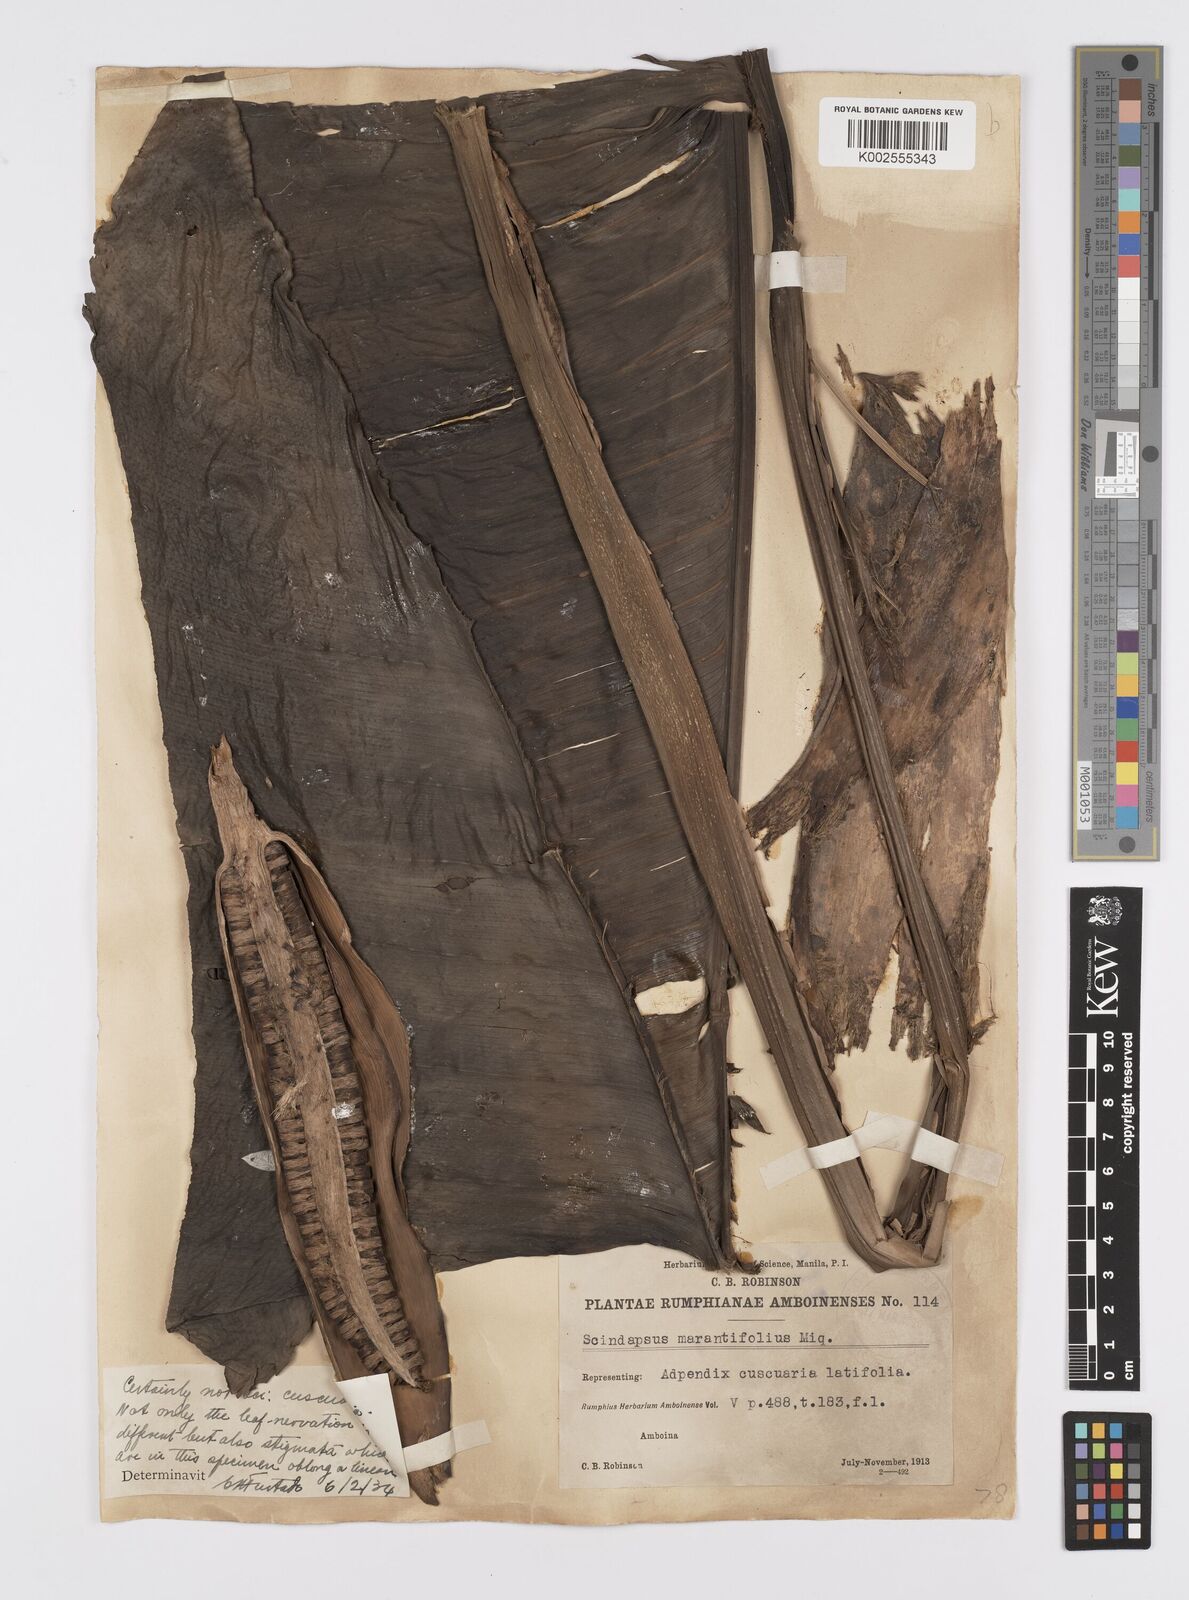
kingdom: Plantae
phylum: Tracheophyta
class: Liliopsida
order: Alismatales
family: Araceae
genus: Epipremnum
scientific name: Epipremnum ceramense
